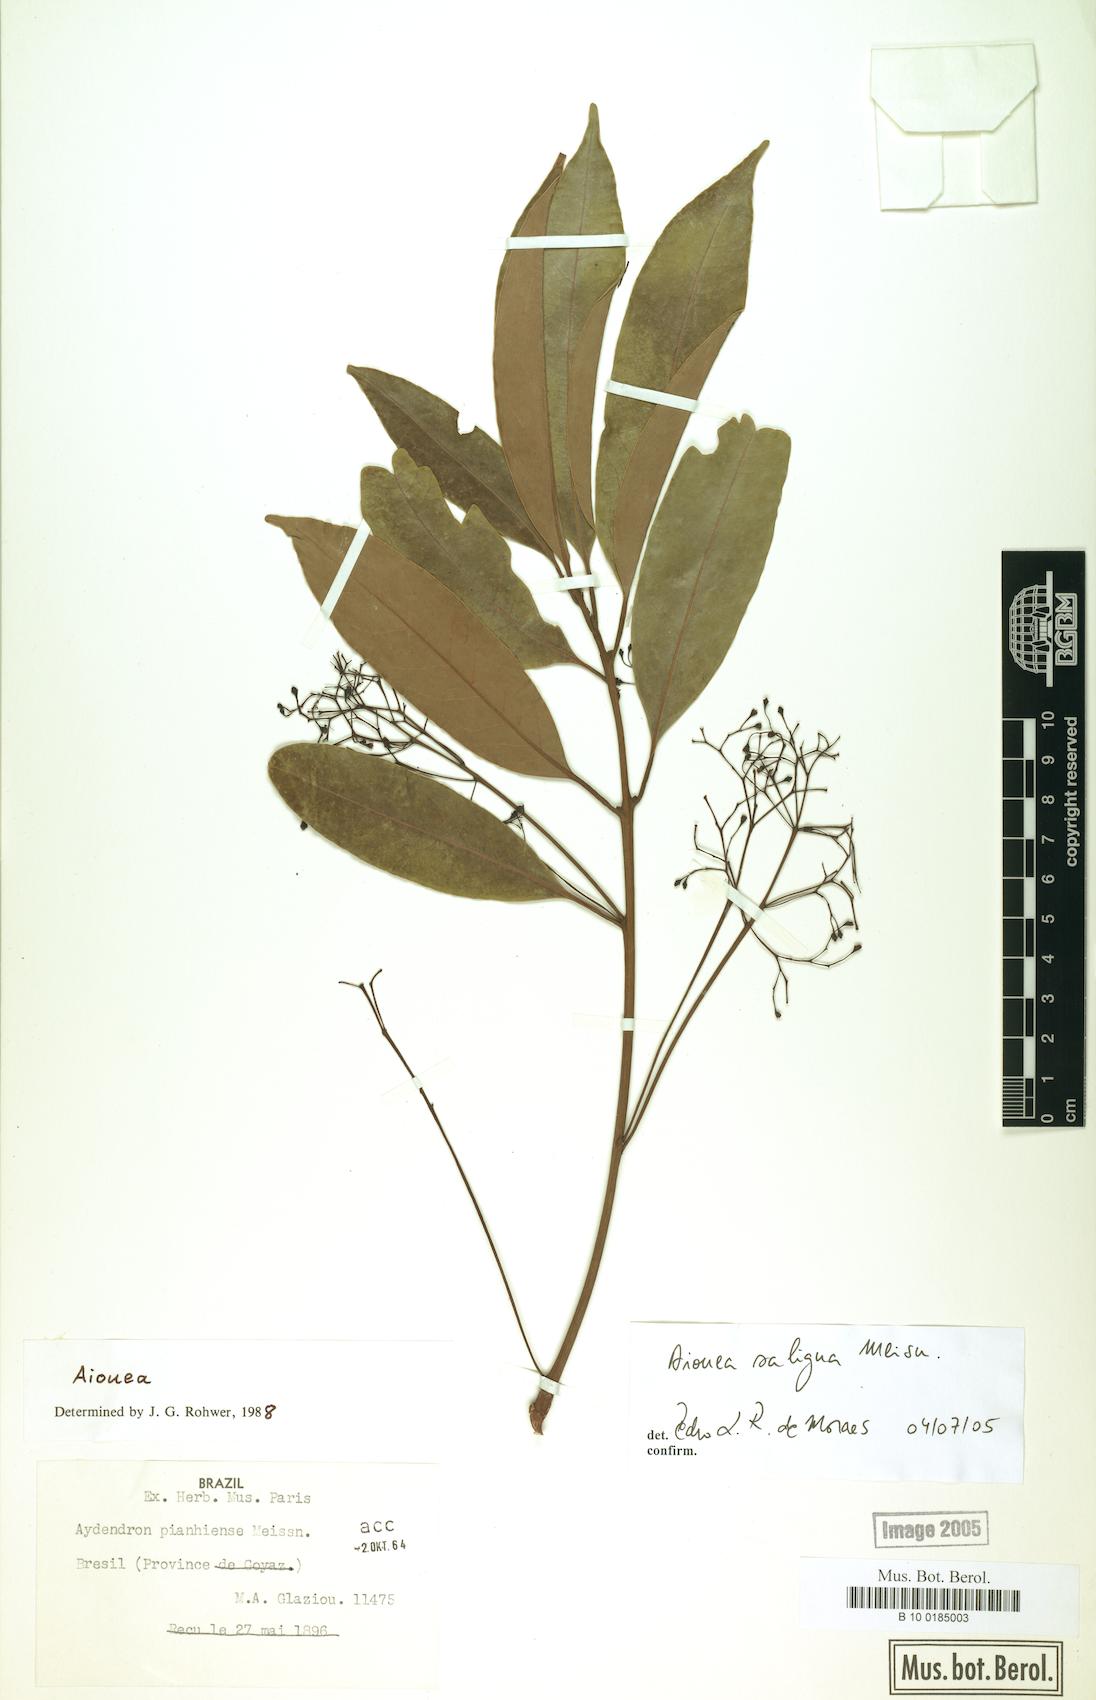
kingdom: Plantae
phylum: Tracheophyta
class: Magnoliopsida
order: Laurales
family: Lauraceae
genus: Aiouea
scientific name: Aiouea saligna
